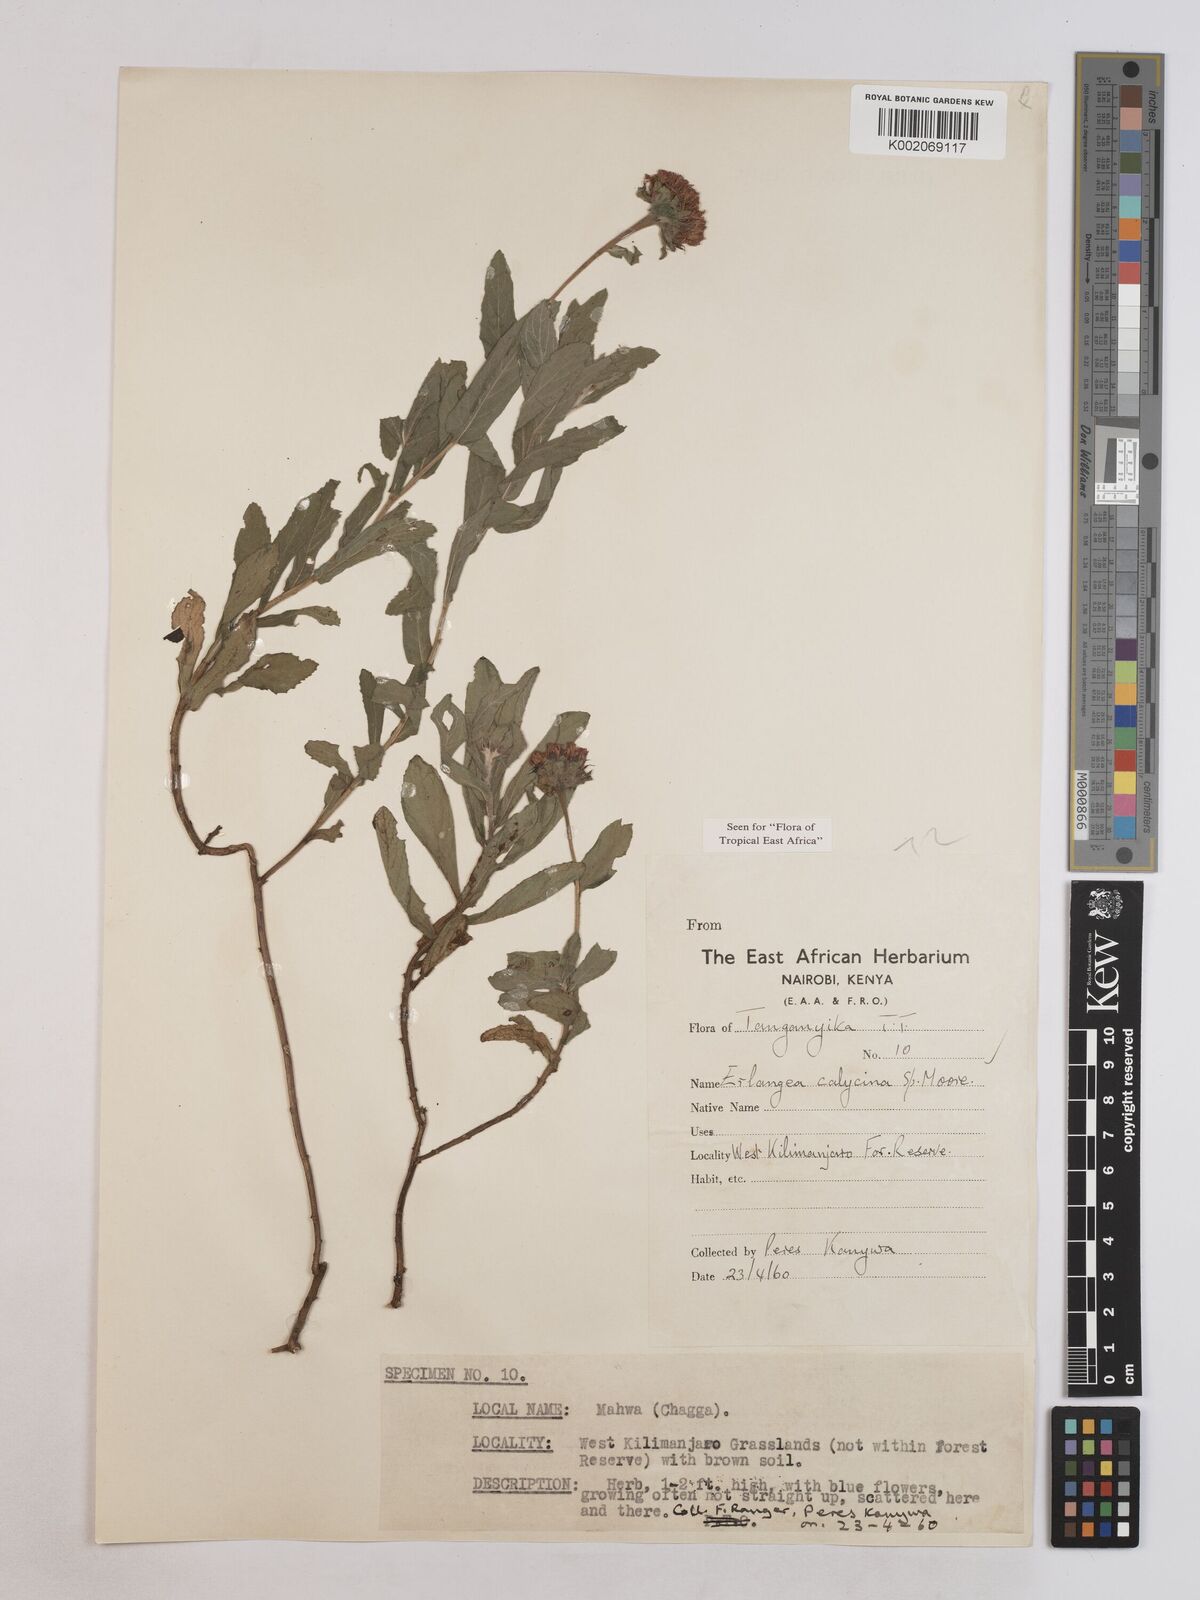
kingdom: Plantae
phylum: Tracheophyta
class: Magnoliopsida
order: Asterales
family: Asteraceae
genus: Erlangea
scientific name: Erlangea calycina
